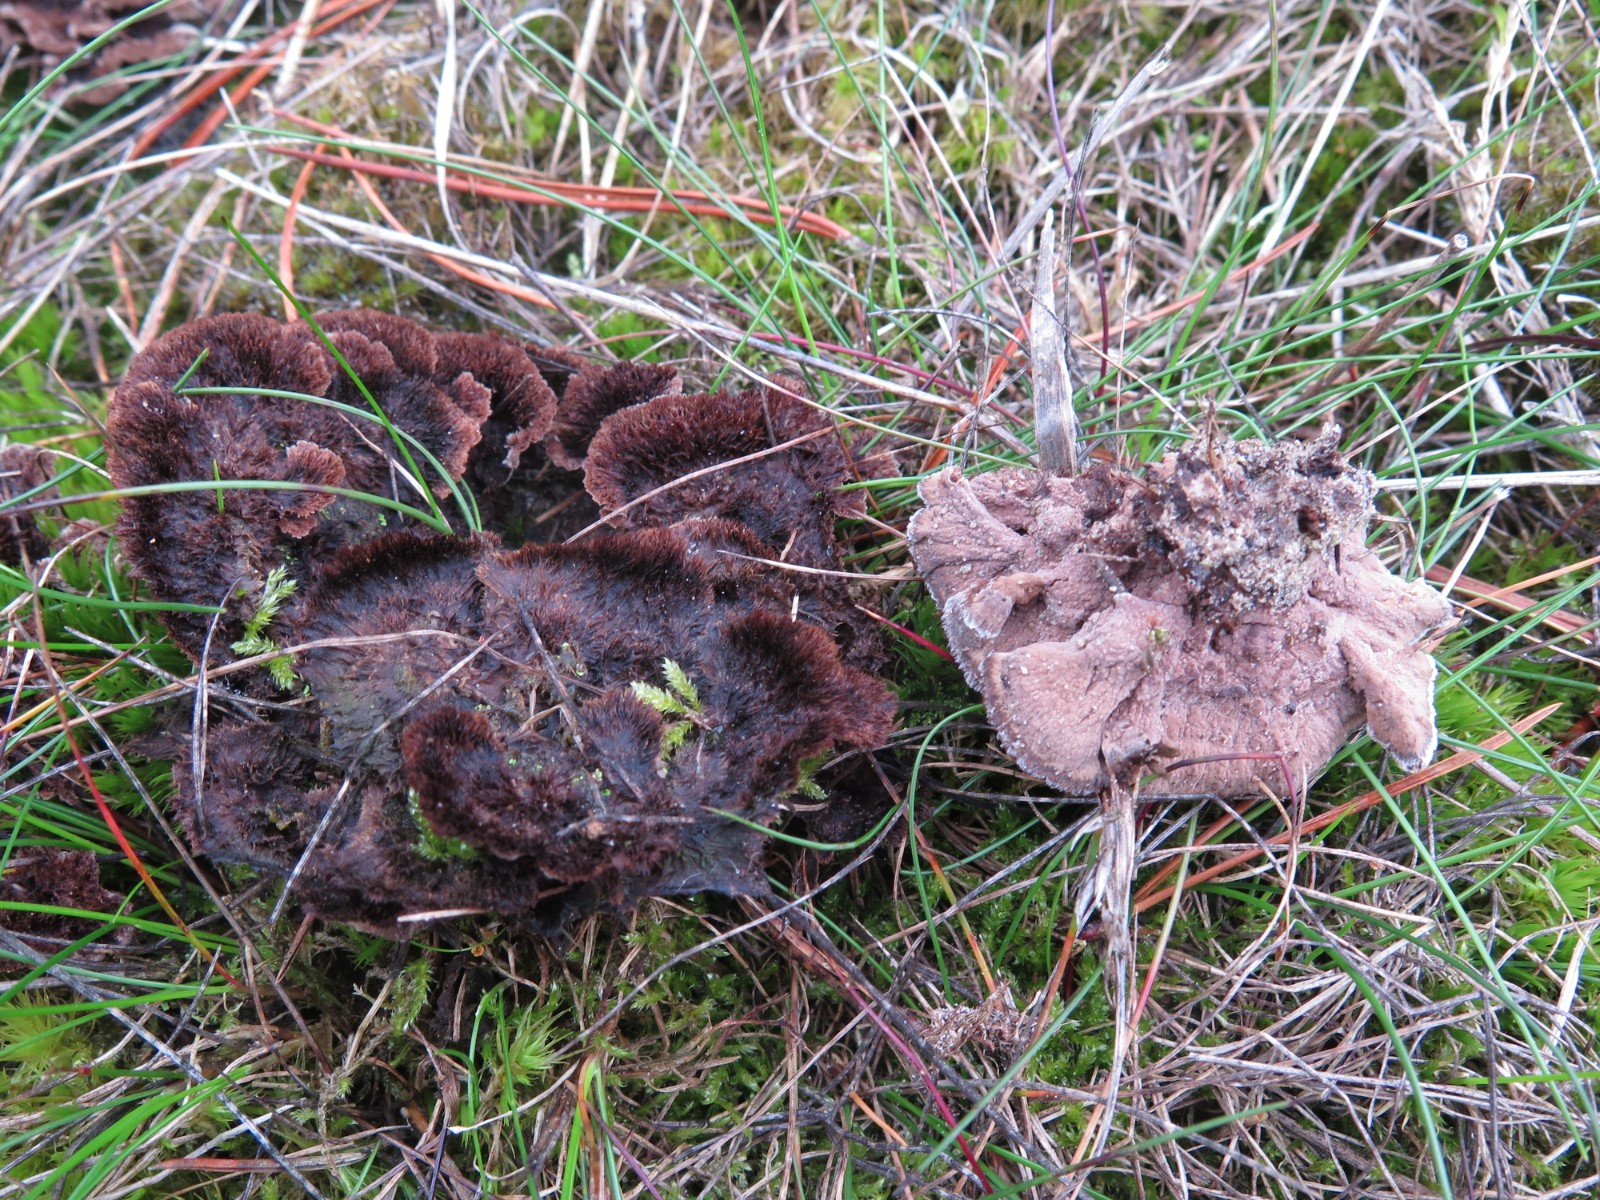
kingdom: Fungi
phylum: Basidiomycota
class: Agaricomycetes
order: Thelephorales
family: Thelephoraceae
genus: Thelephora
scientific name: Thelephora terrestris
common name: fliget frynsesvamp
